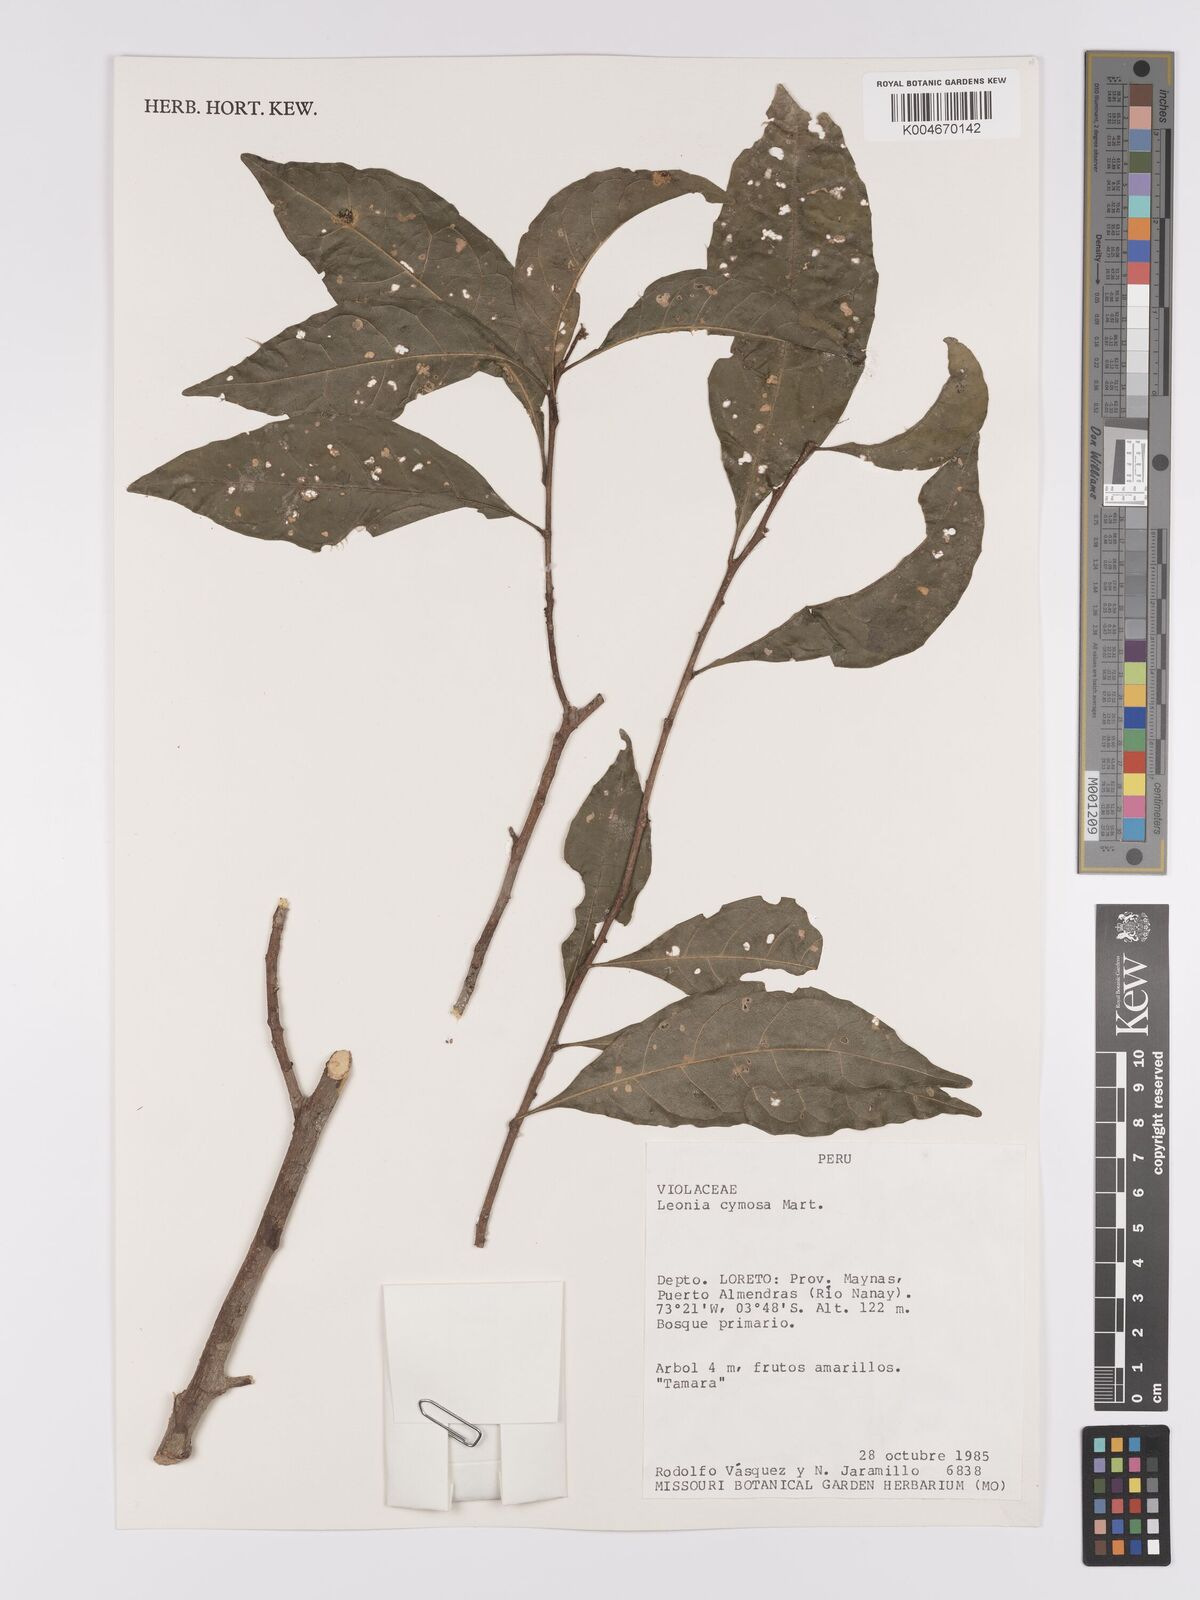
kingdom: Plantae
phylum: Tracheophyta
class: Magnoliopsida
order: Malpighiales
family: Violaceae
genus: Leonia
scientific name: Leonia cymosa
